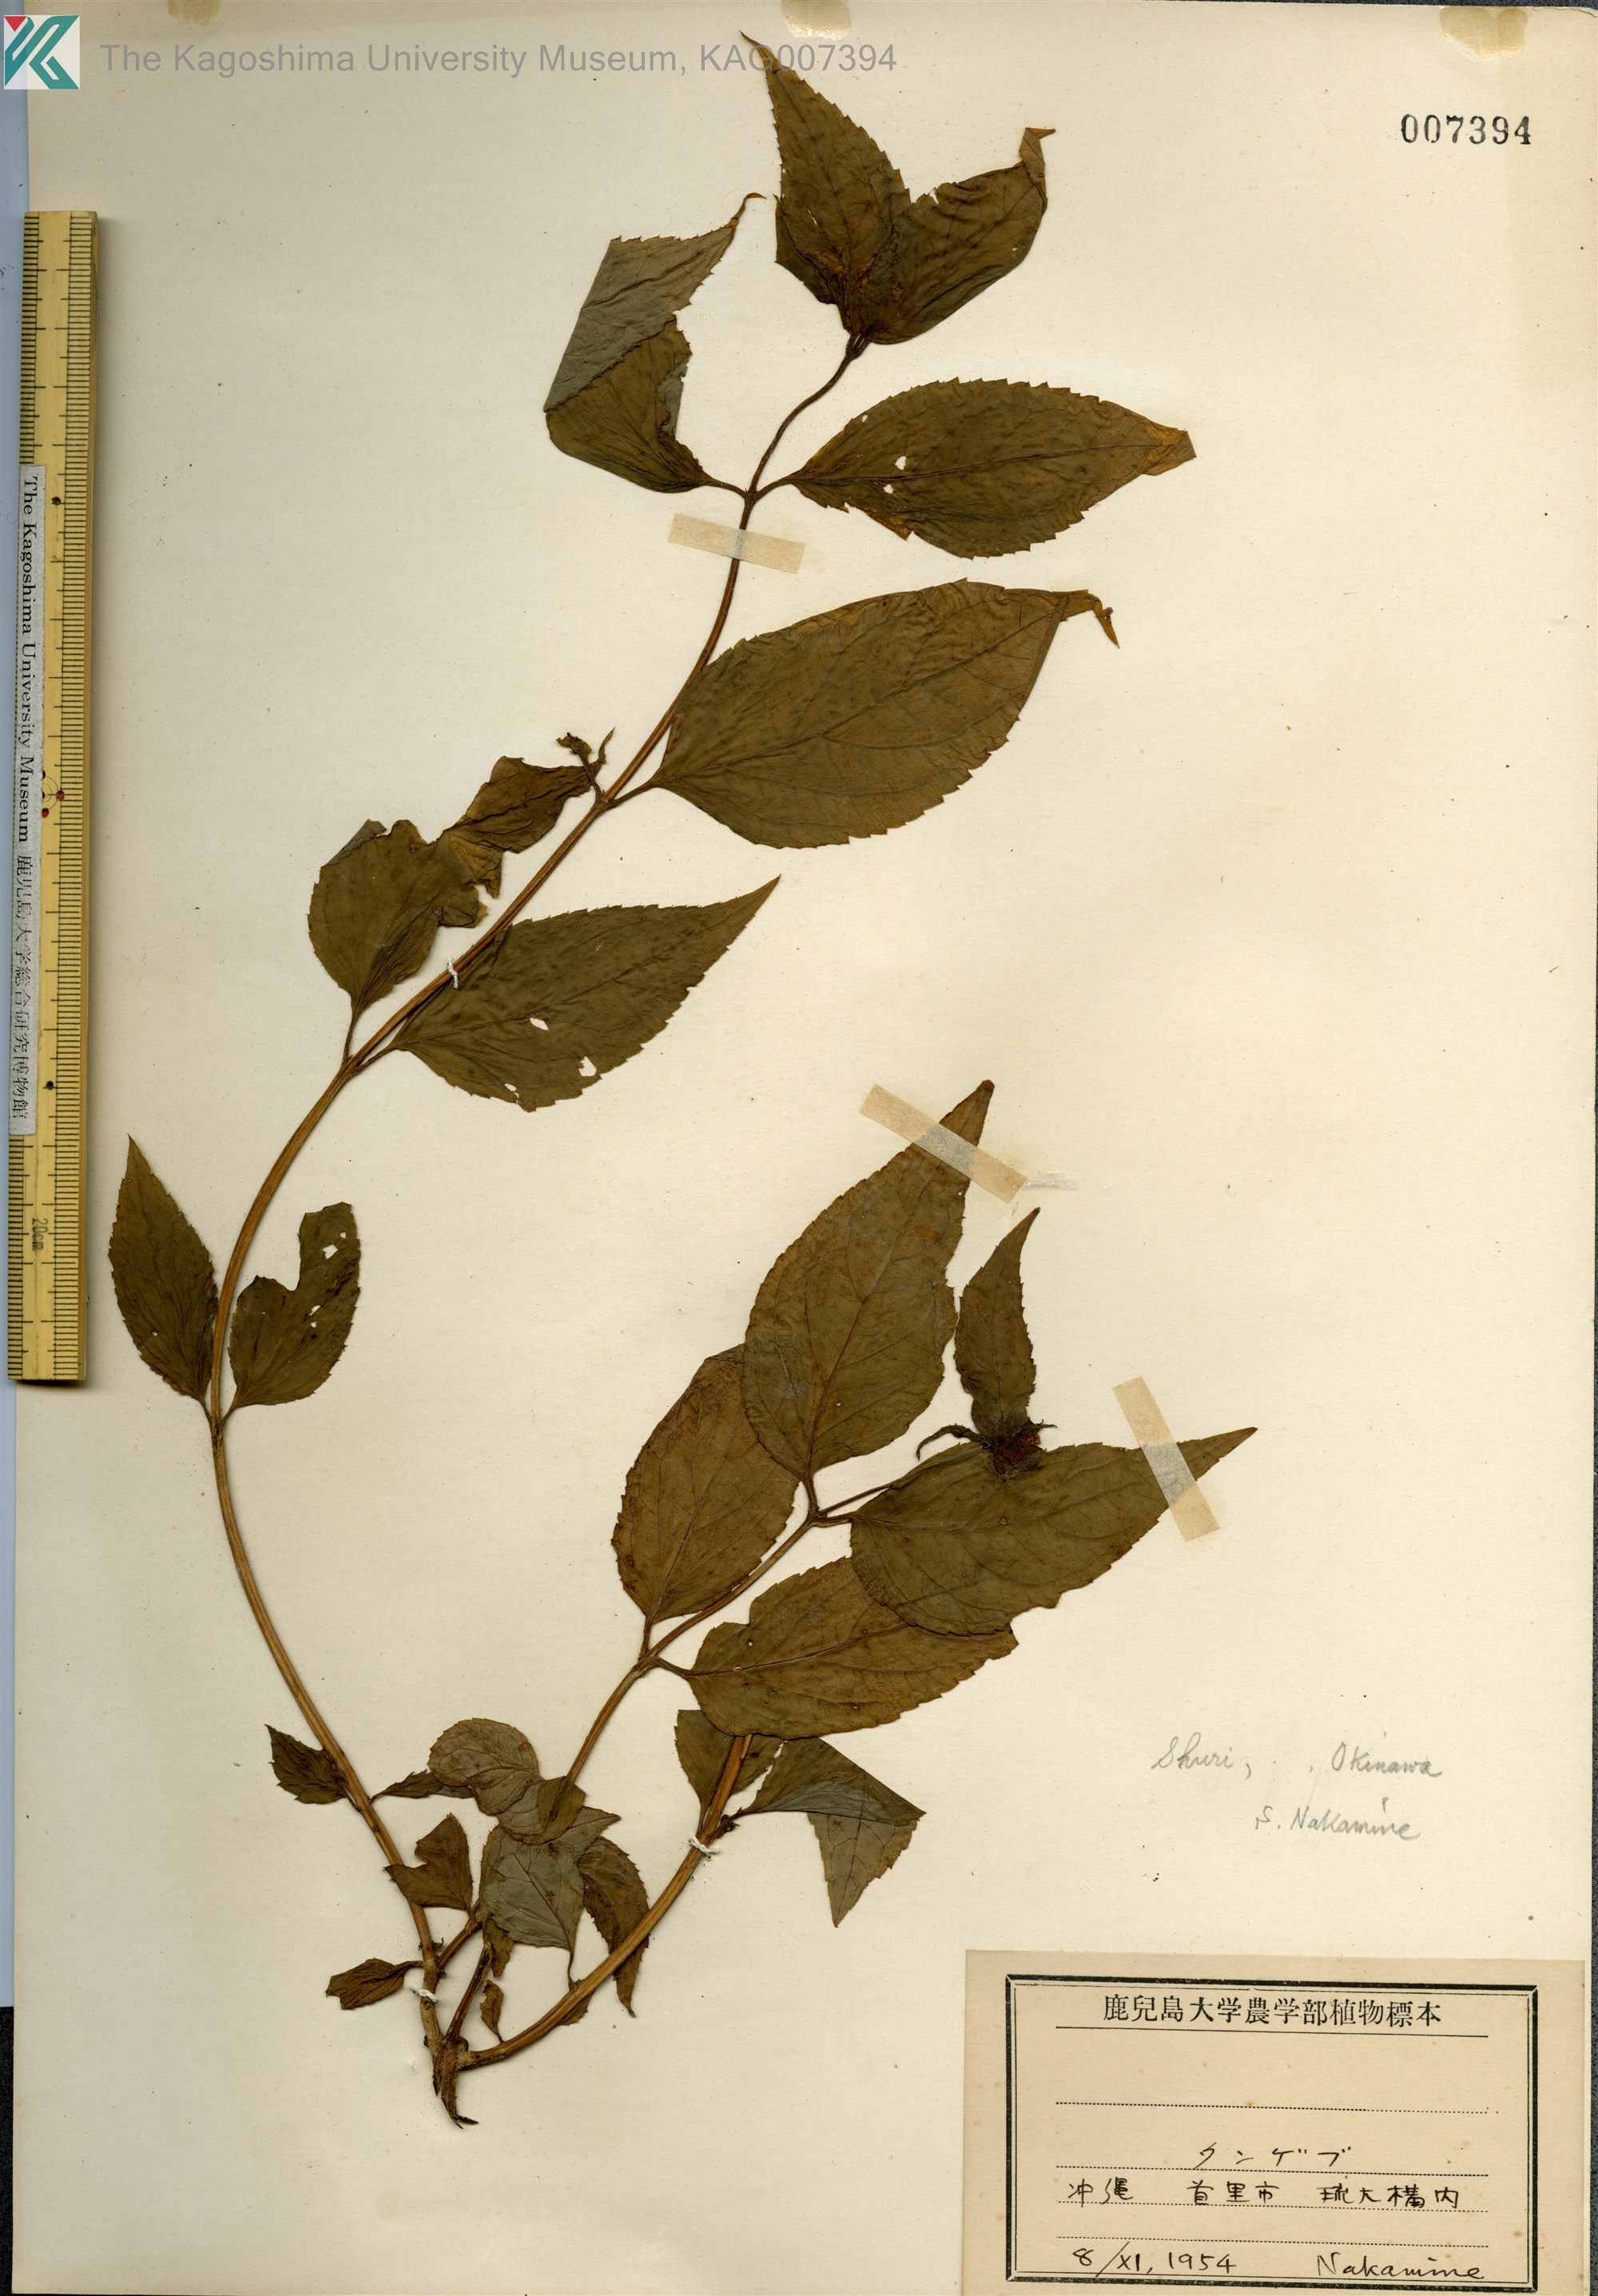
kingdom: Plantae
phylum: Tracheophyta
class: Magnoliopsida
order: Asterales
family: Campanulaceae
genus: Cyclocodon
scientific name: Cyclocodon lancifolius
